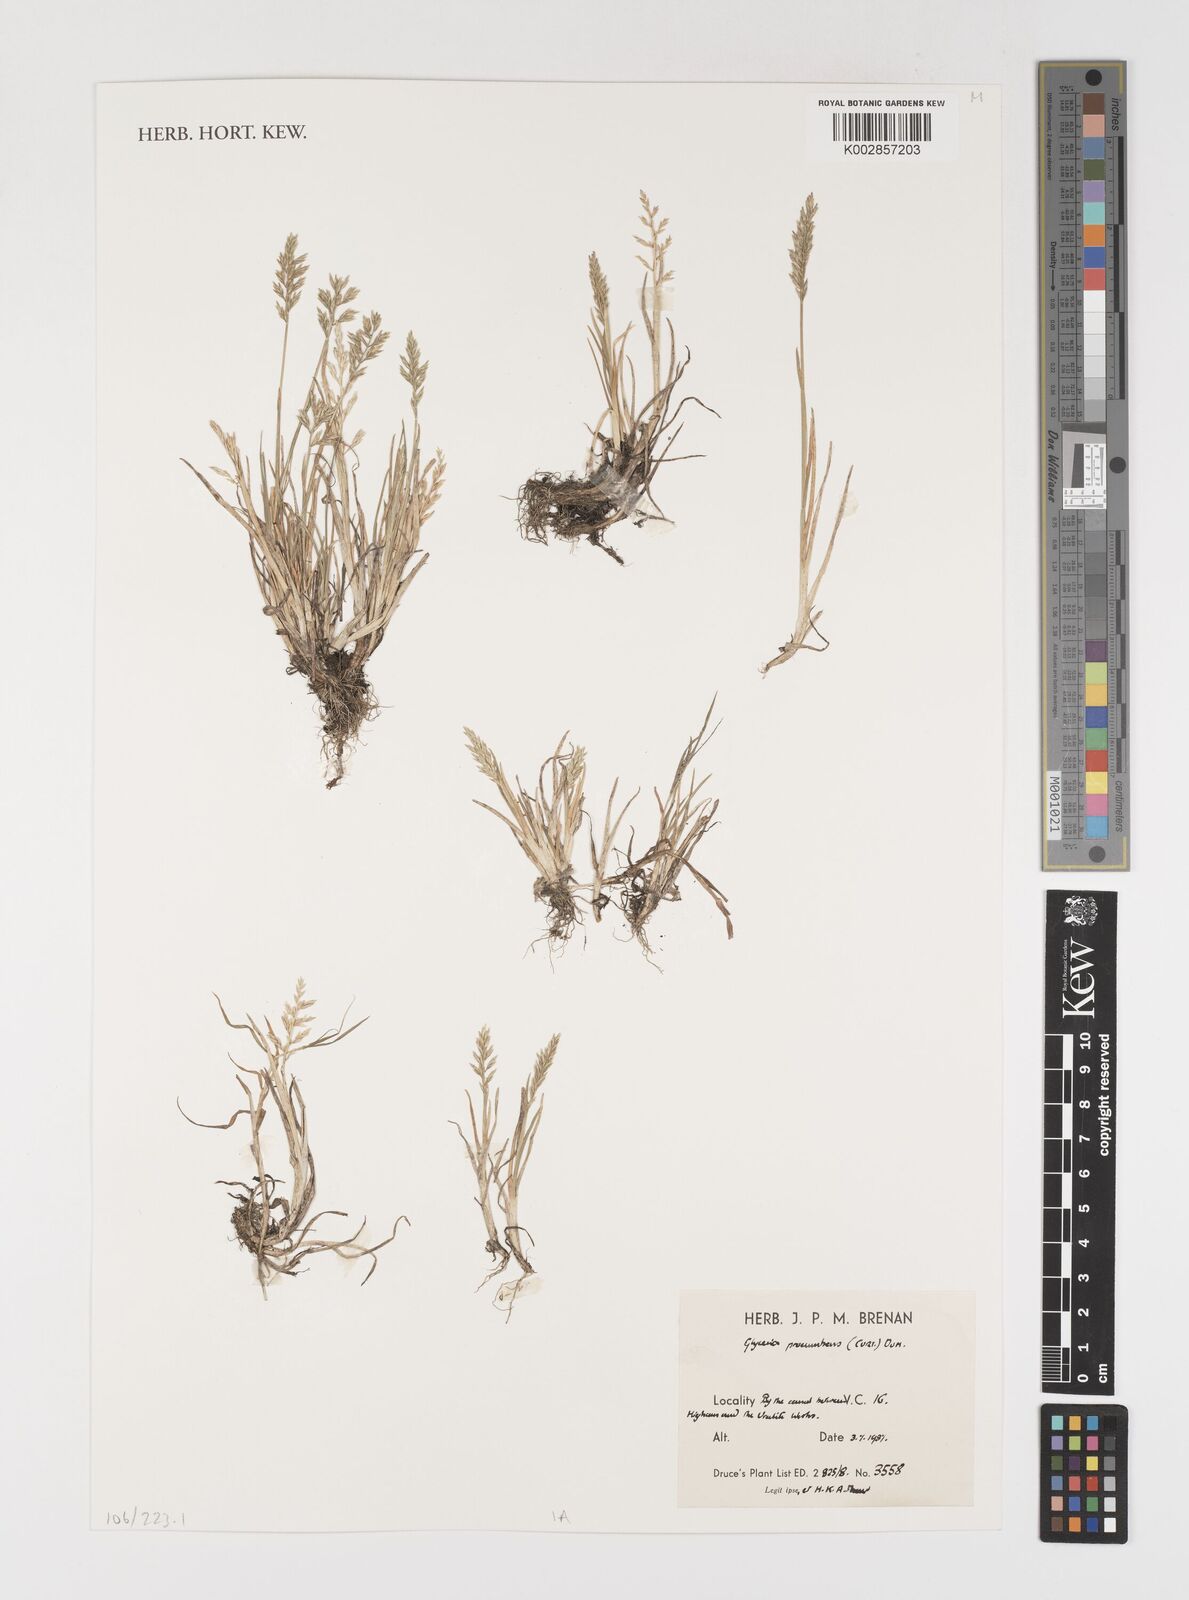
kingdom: Plantae
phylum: Tracheophyta
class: Liliopsida
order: Poales
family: Poaceae
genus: Puccinellia
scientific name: Puccinellia rupestris
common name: Stiff saltmarsh-grass
